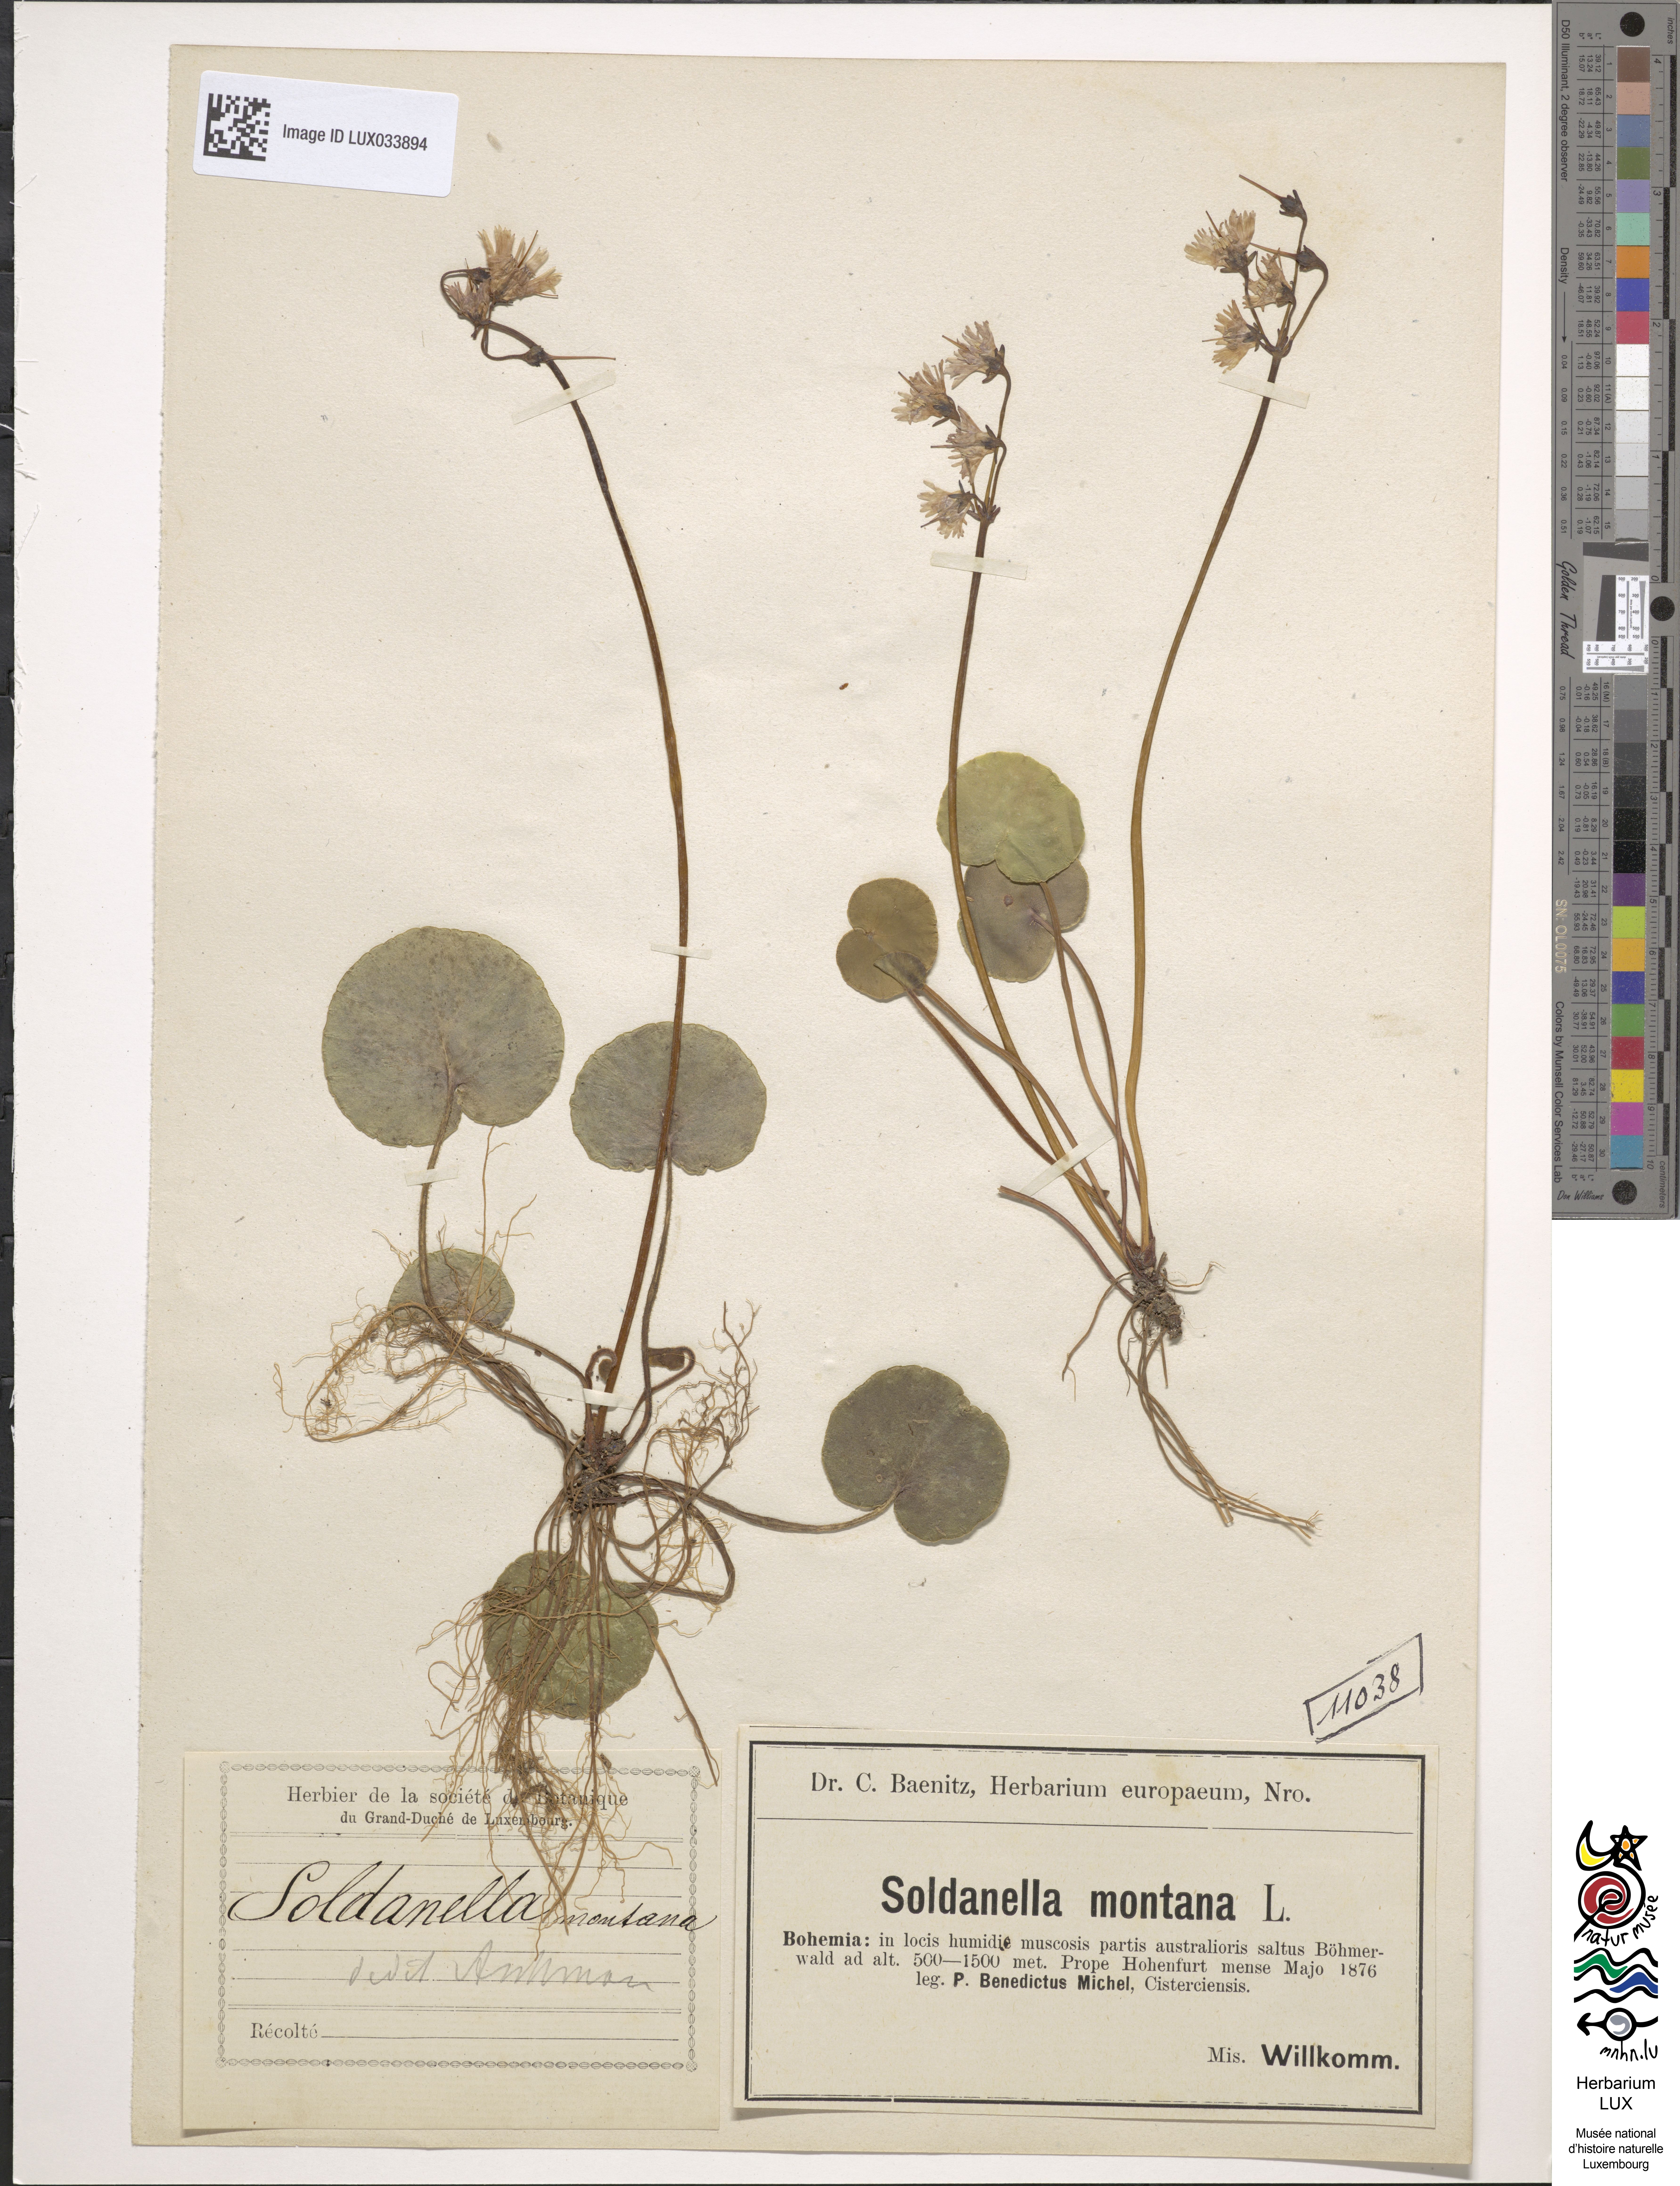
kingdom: Plantae
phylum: Tracheophyta
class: Magnoliopsida
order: Ericales
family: Primulaceae
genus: Soldanella
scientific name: Soldanella montana
